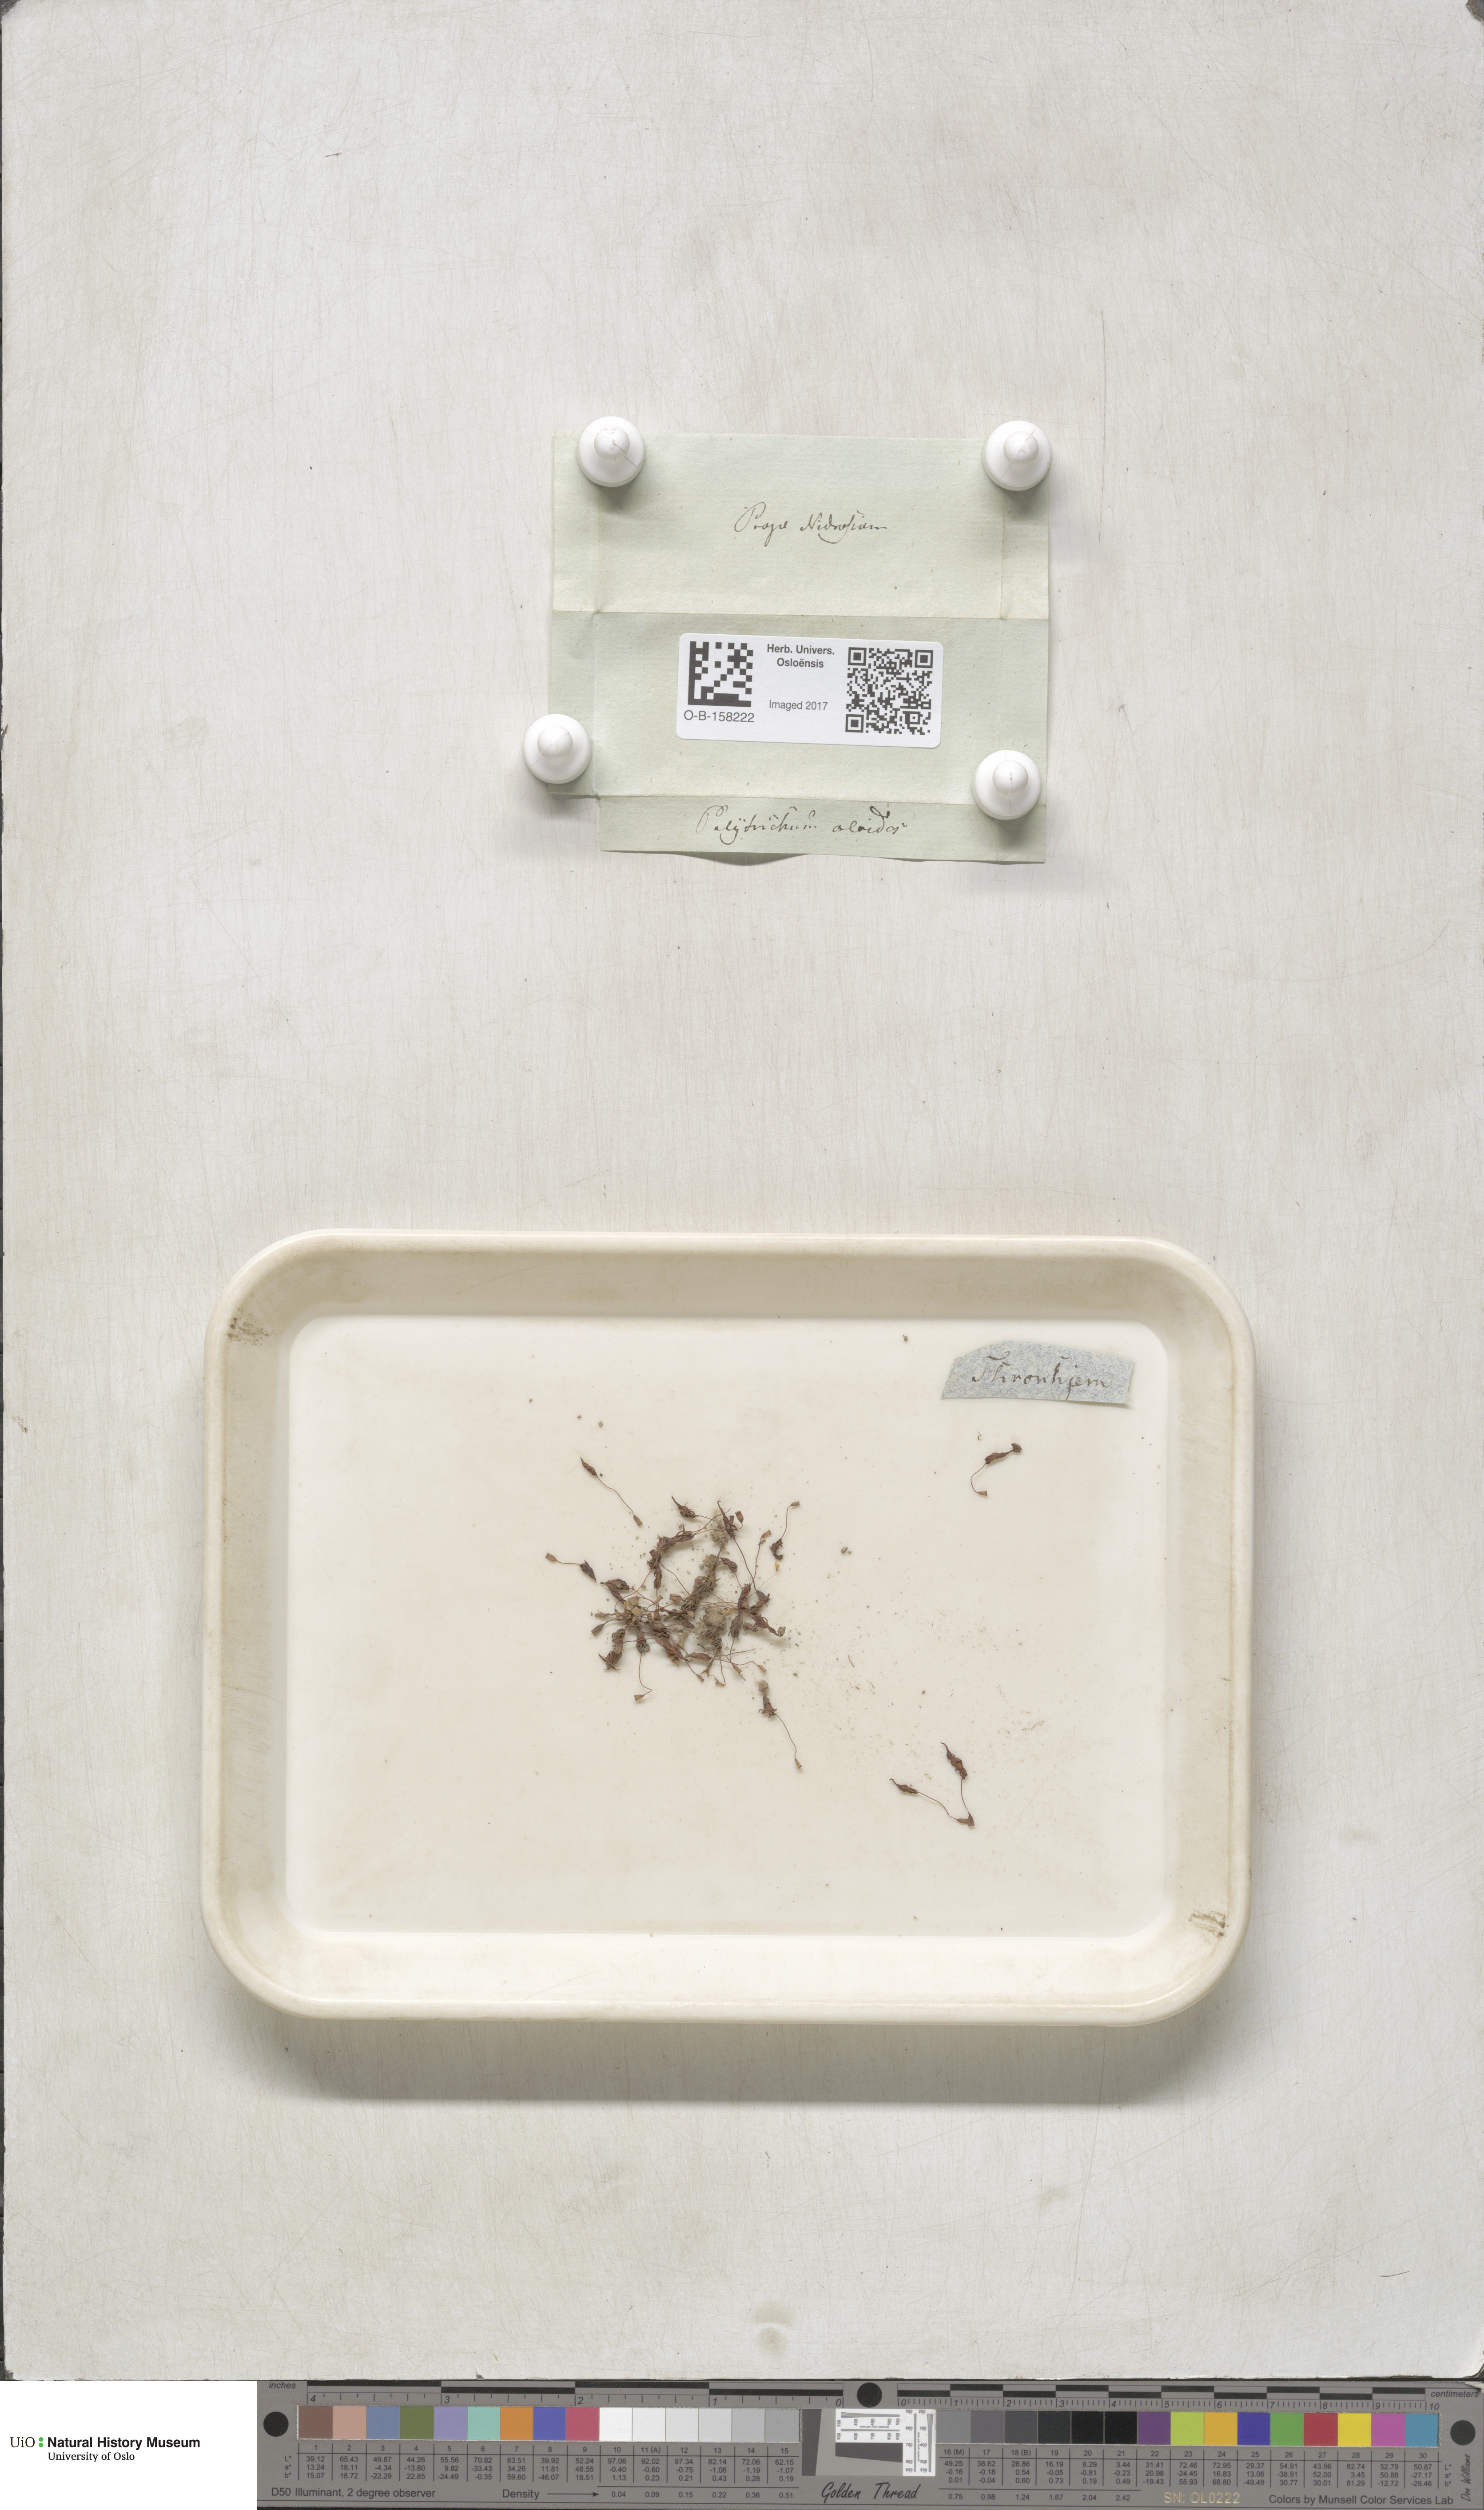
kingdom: Plantae
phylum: Bryophyta
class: Polytrichopsida
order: Polytrichales
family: Polytrichaceae
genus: Pogonatum
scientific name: Pogonatum aloides
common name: Aloe haircap
